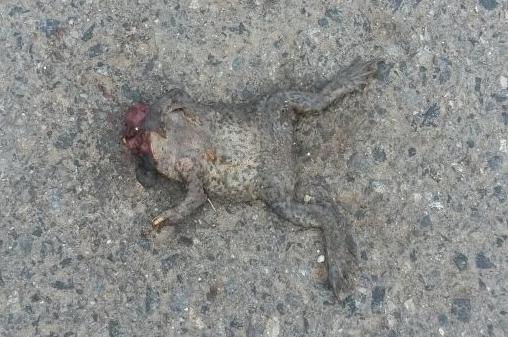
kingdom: Animalia
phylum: Chordata
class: Amphibia
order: Anura
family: Bufonidae
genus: Bufo
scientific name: Bufo bufo
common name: Common toad
